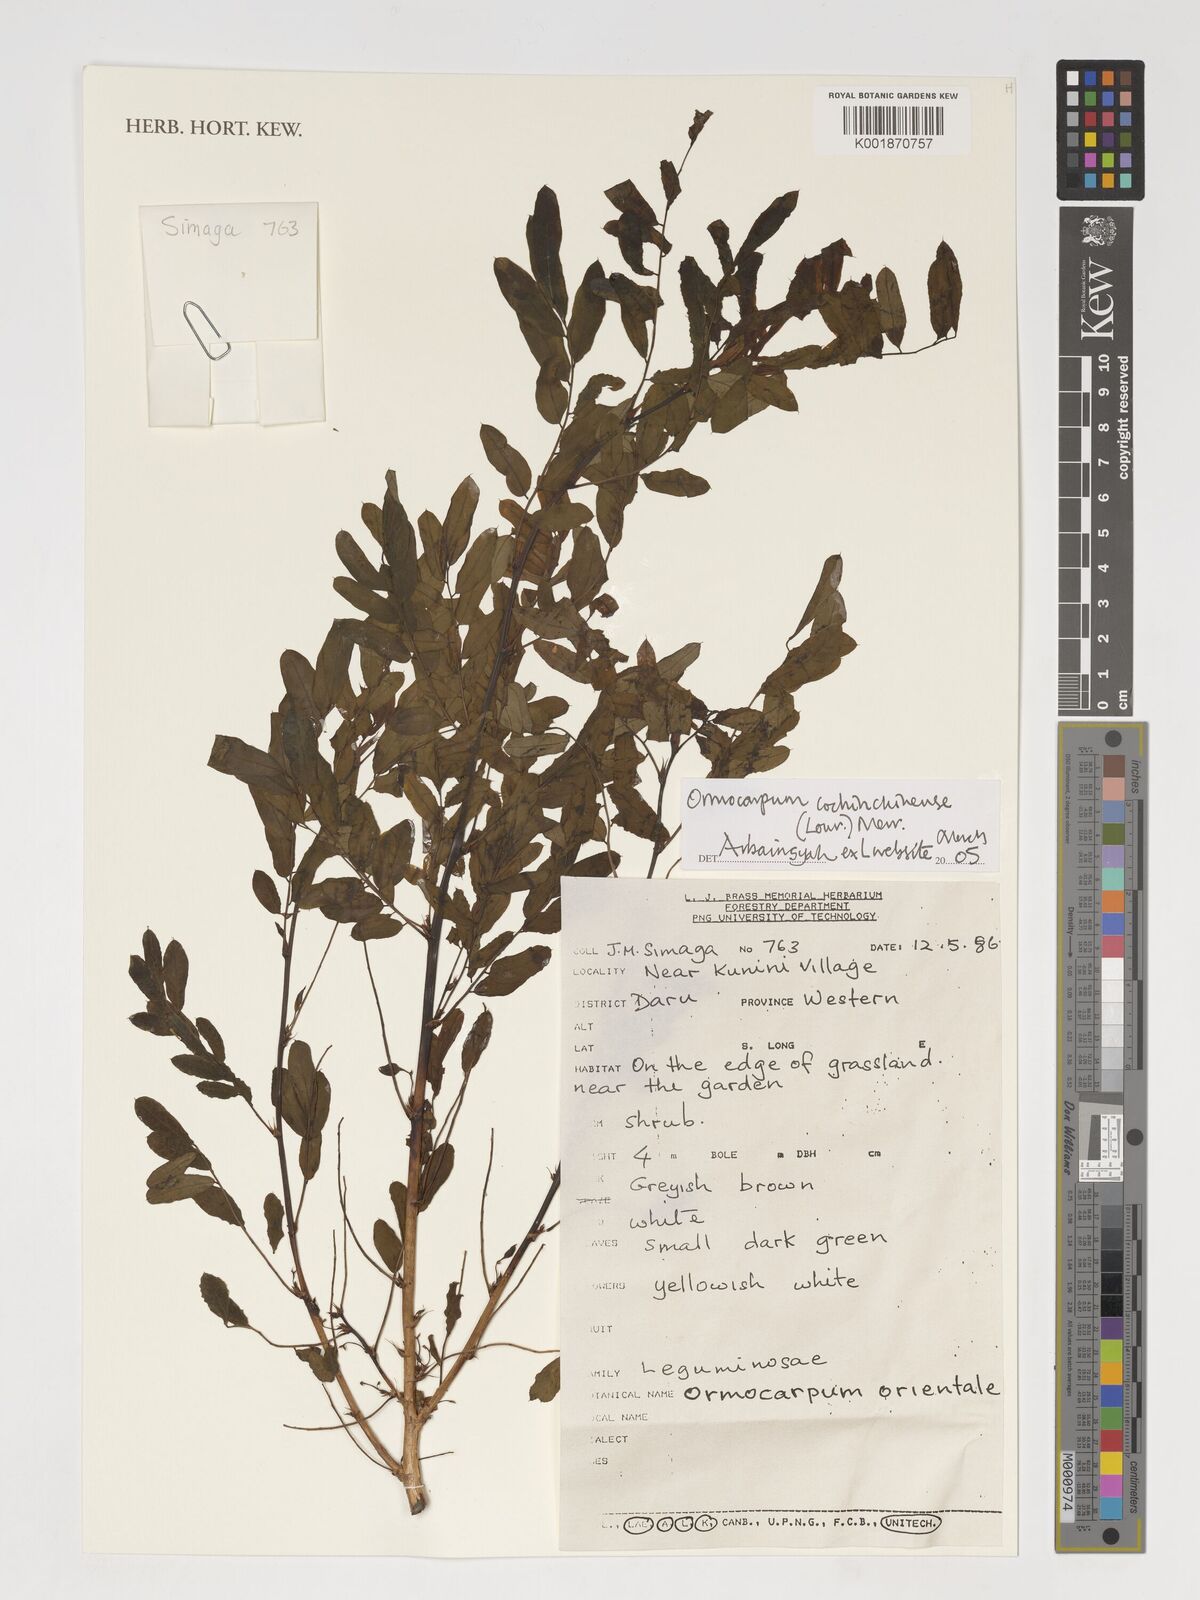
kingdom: Plantae
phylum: Tracheophyta
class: Magnoliopsida
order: Fabales
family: Fabaceae
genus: Ormocarpum
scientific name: Ormocarpum cochinchinense
